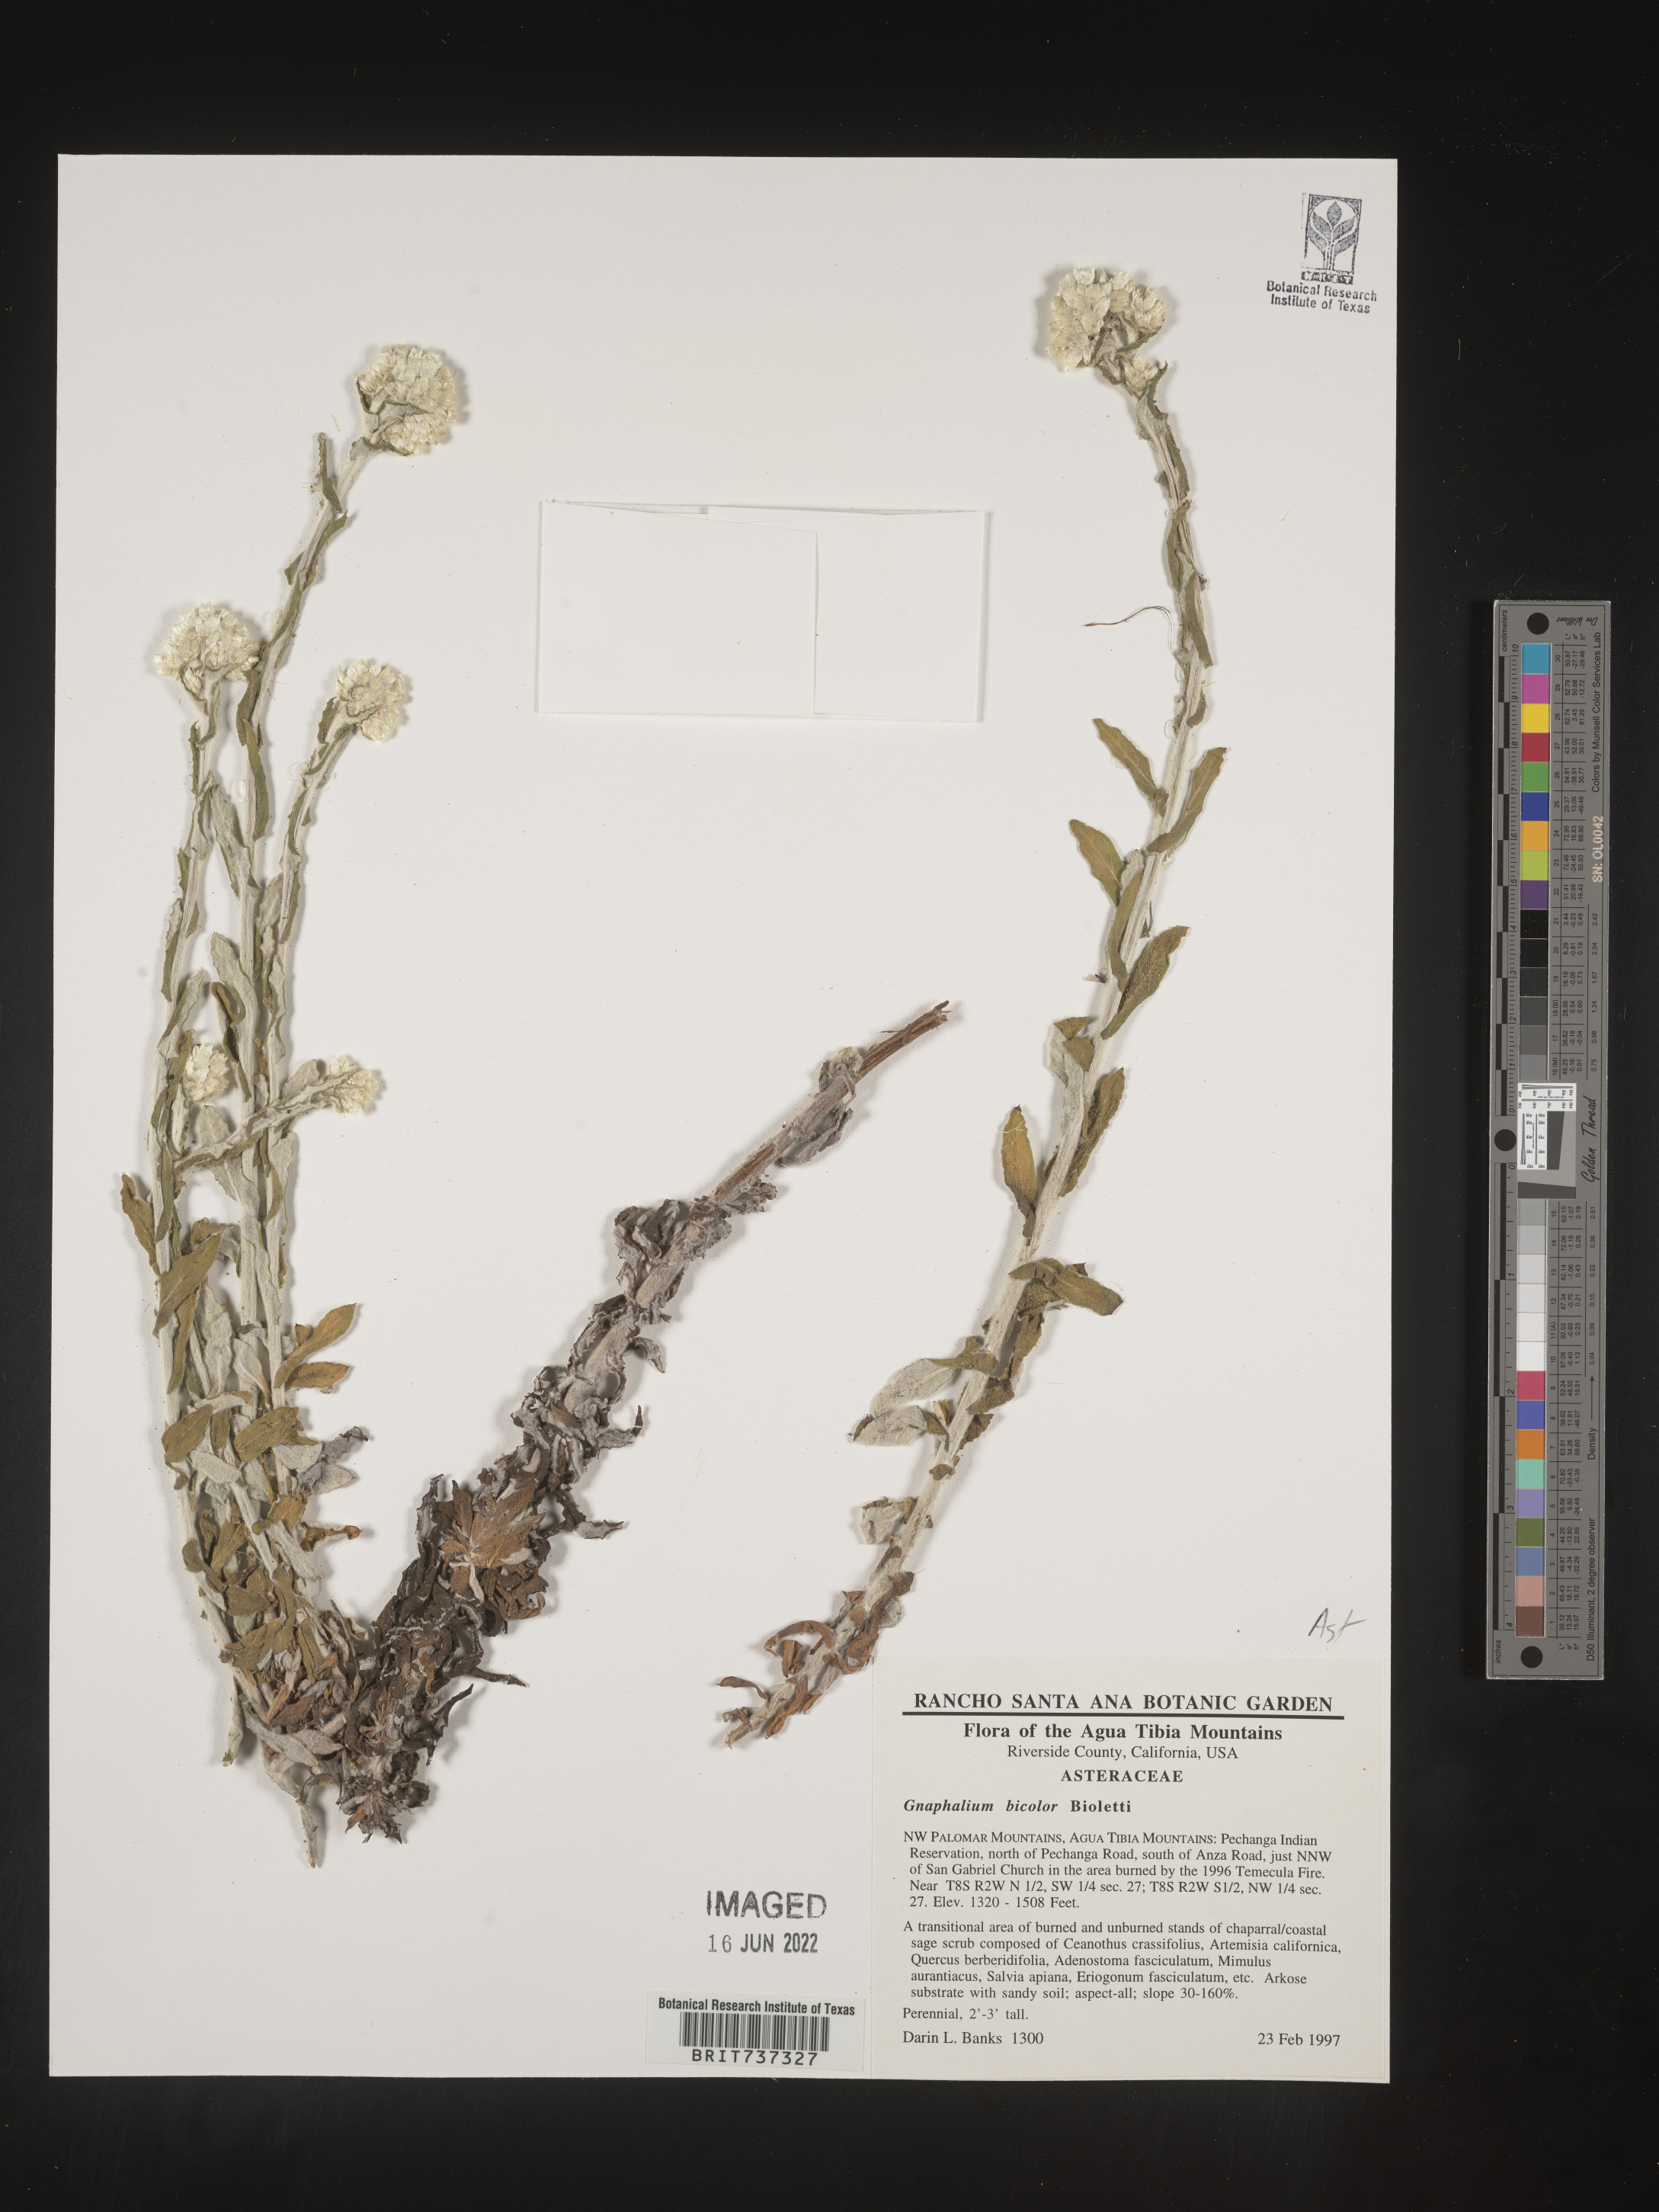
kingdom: Plantae
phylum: Tracheophyta
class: Magnoliopsida
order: Asterales
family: Asteraceae
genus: Pseudognaphalium
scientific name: Pseudognaphalium biolettii
